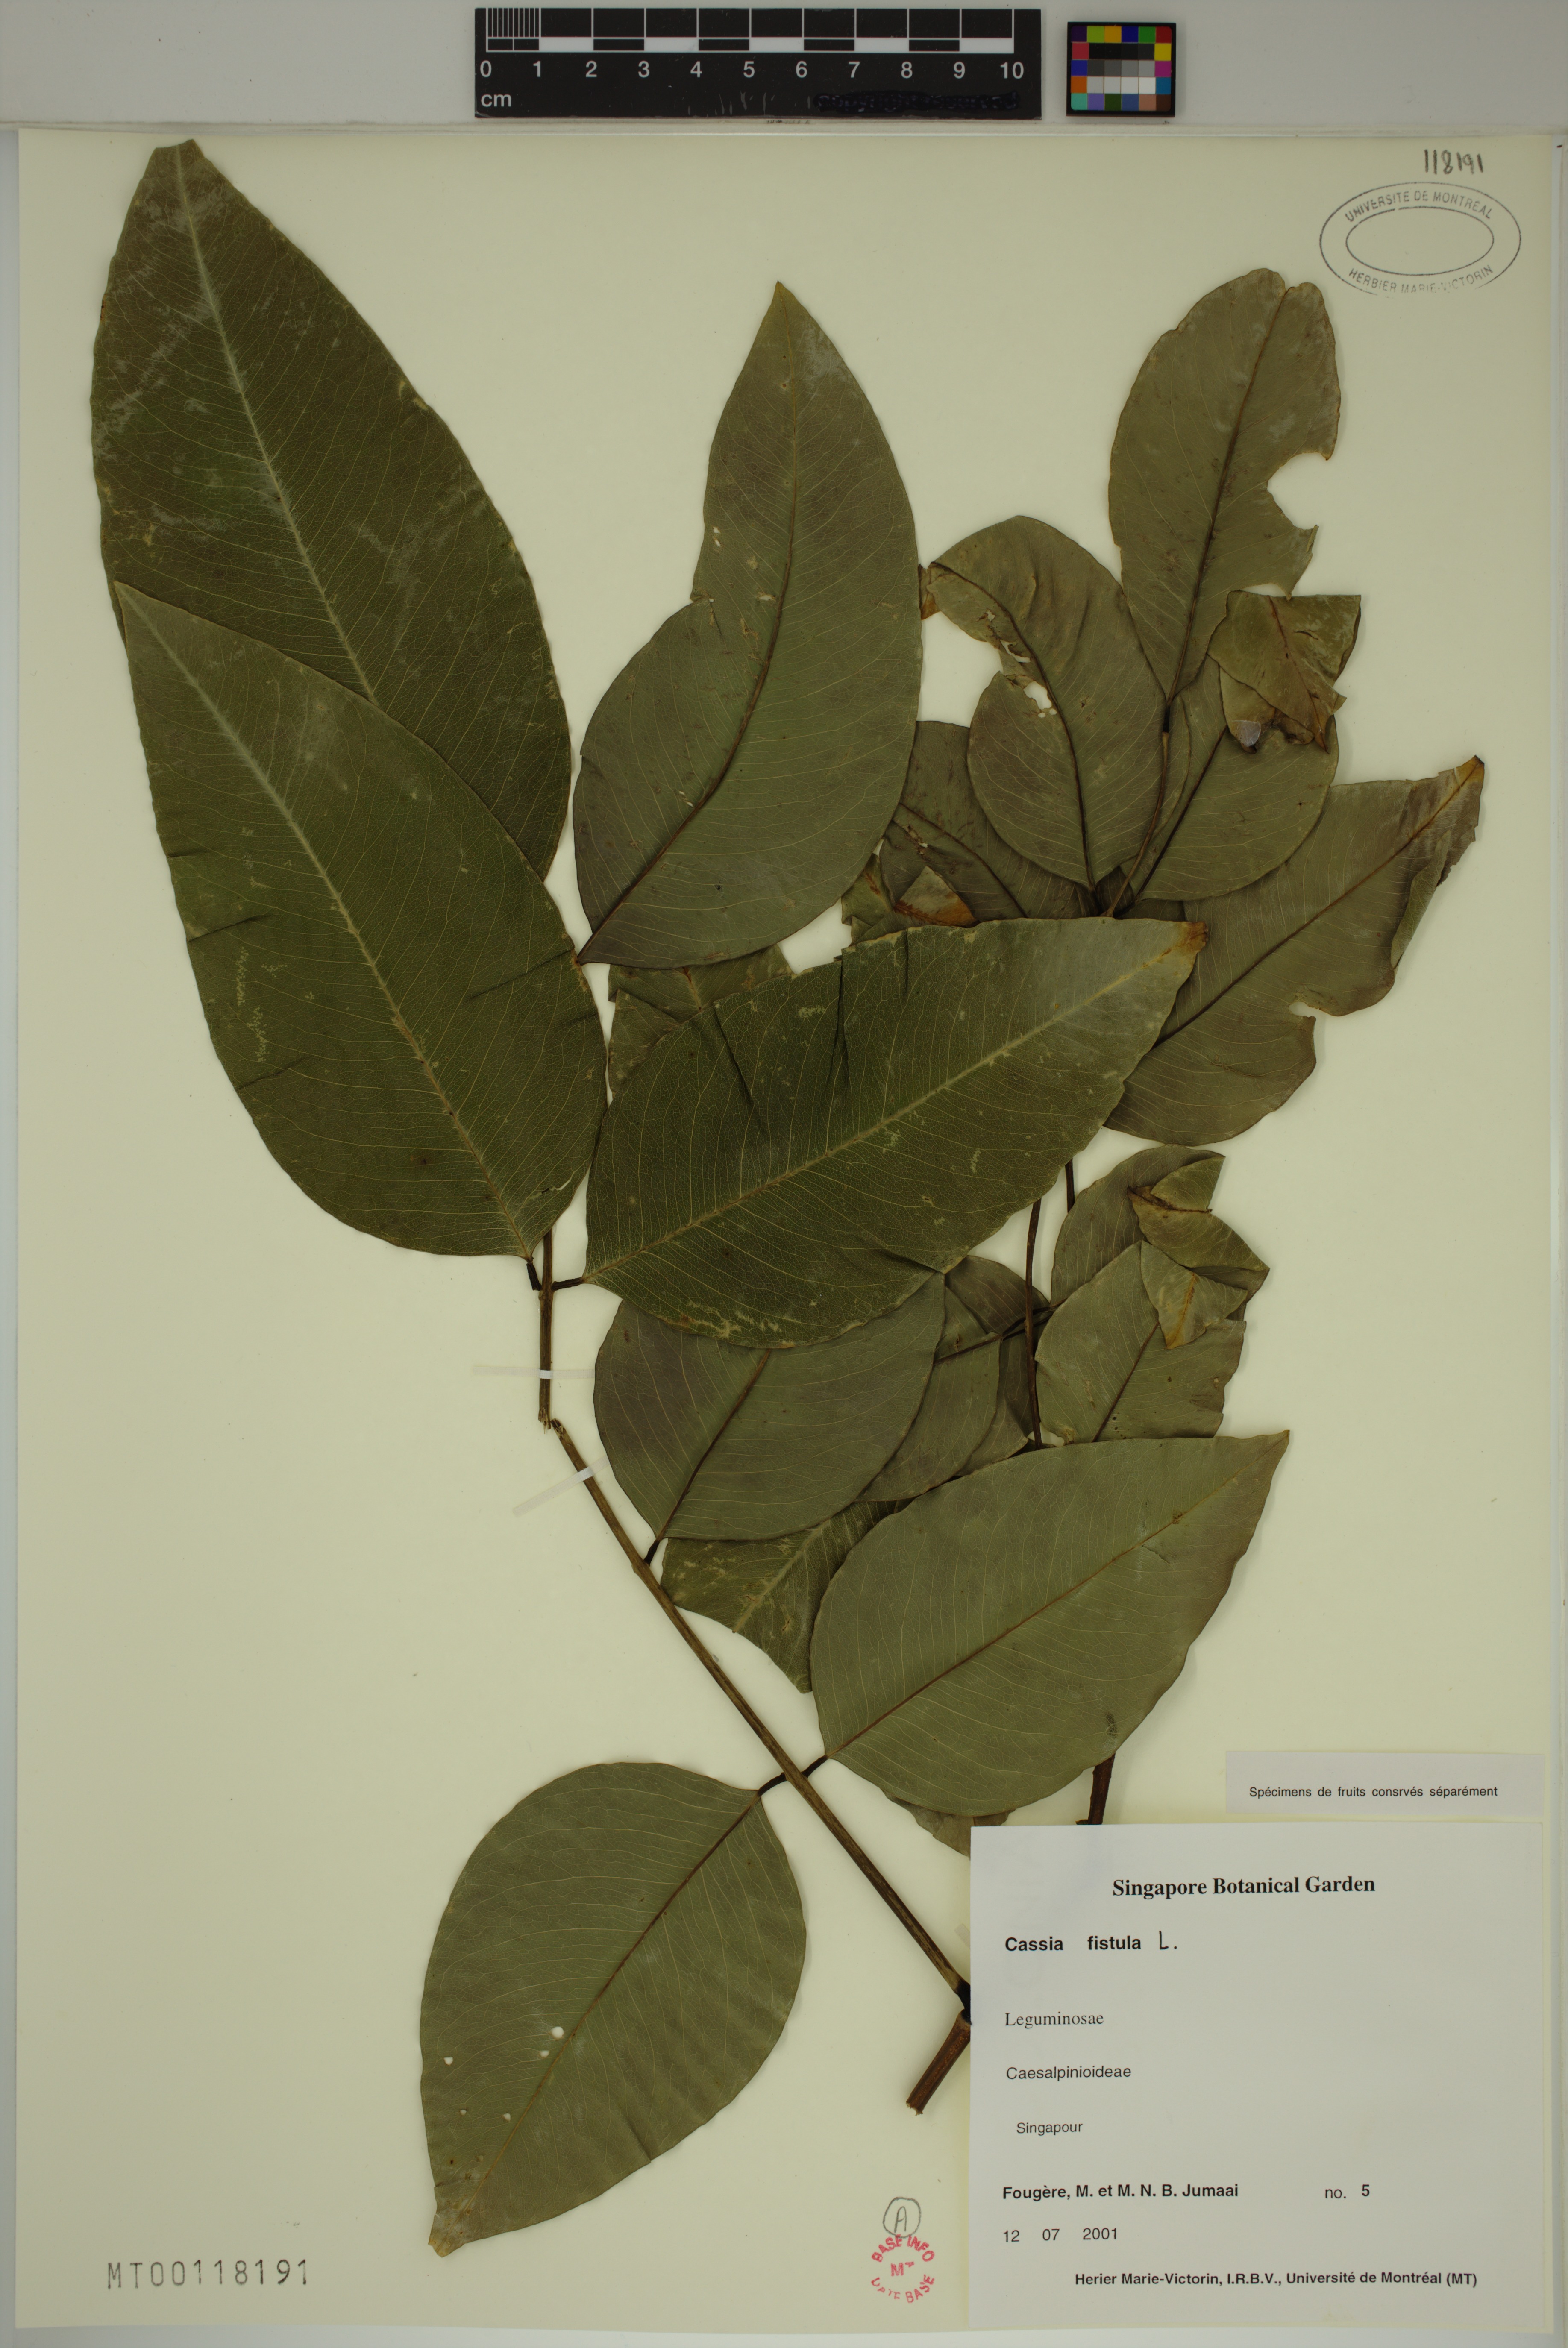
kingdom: Plantae
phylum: Tracheophyta
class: Magnoliopsida
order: Fabales
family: Fabaceae
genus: Cassia
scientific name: Cassia fistula
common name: Golden shower
